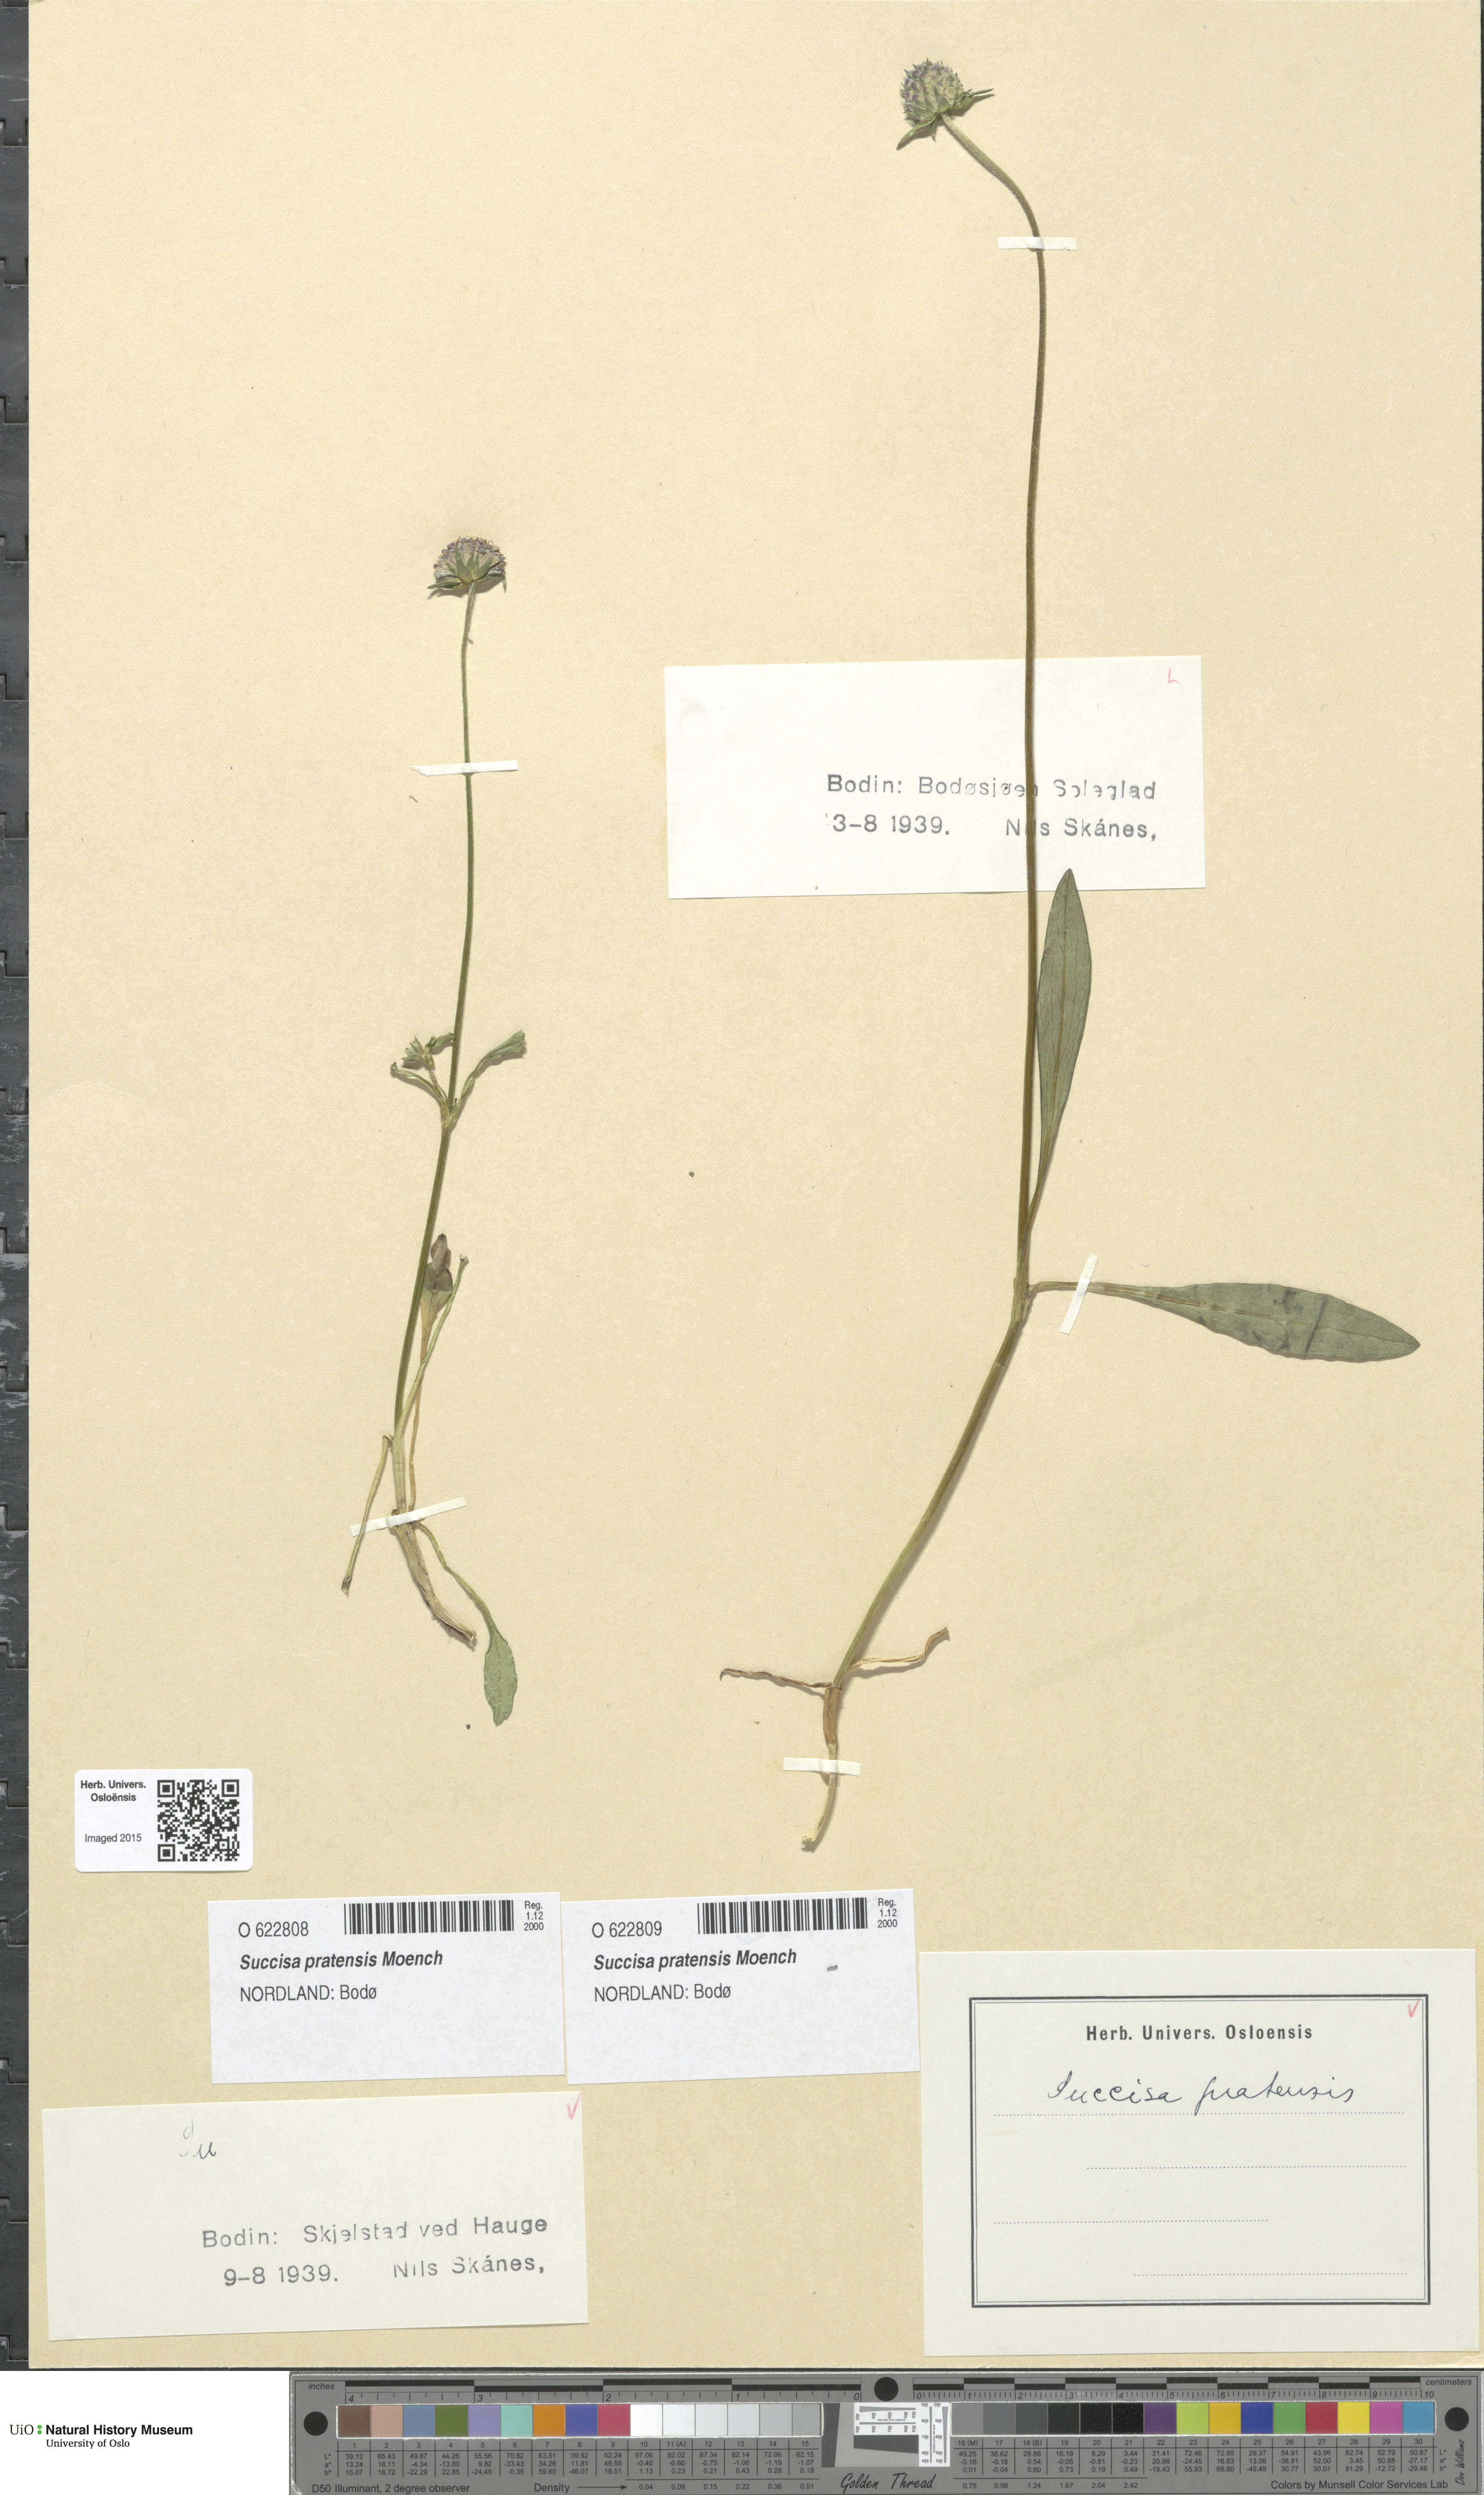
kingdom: Plantae
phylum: Tracheophyta
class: Magnoliopsida
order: Dipsacales
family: Caprifoliaceae
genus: Succisa
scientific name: Succisa pratensis
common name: Devil's-bit
